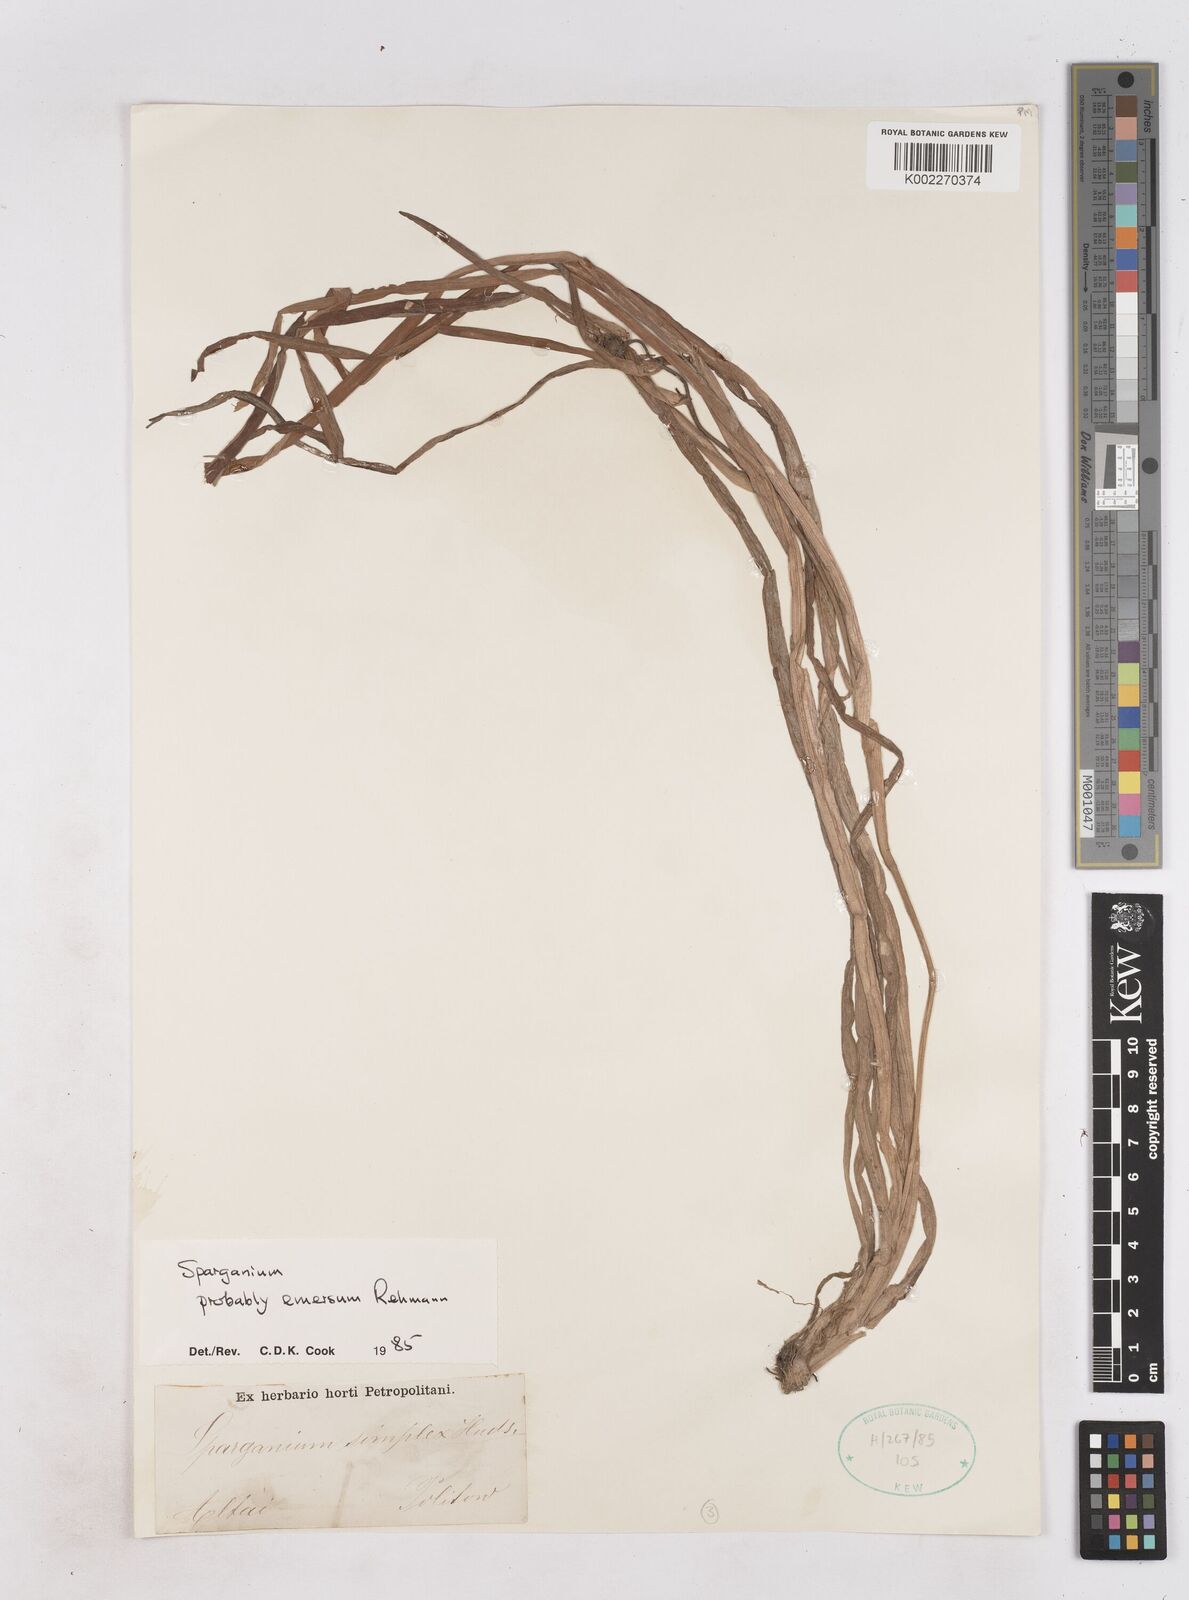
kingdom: Plantae
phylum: Tracheophyta
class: Liliopsida
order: Poales
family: Typhaceae
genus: Sparganium
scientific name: Sparganium angustifolium
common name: Floating bur-reed
